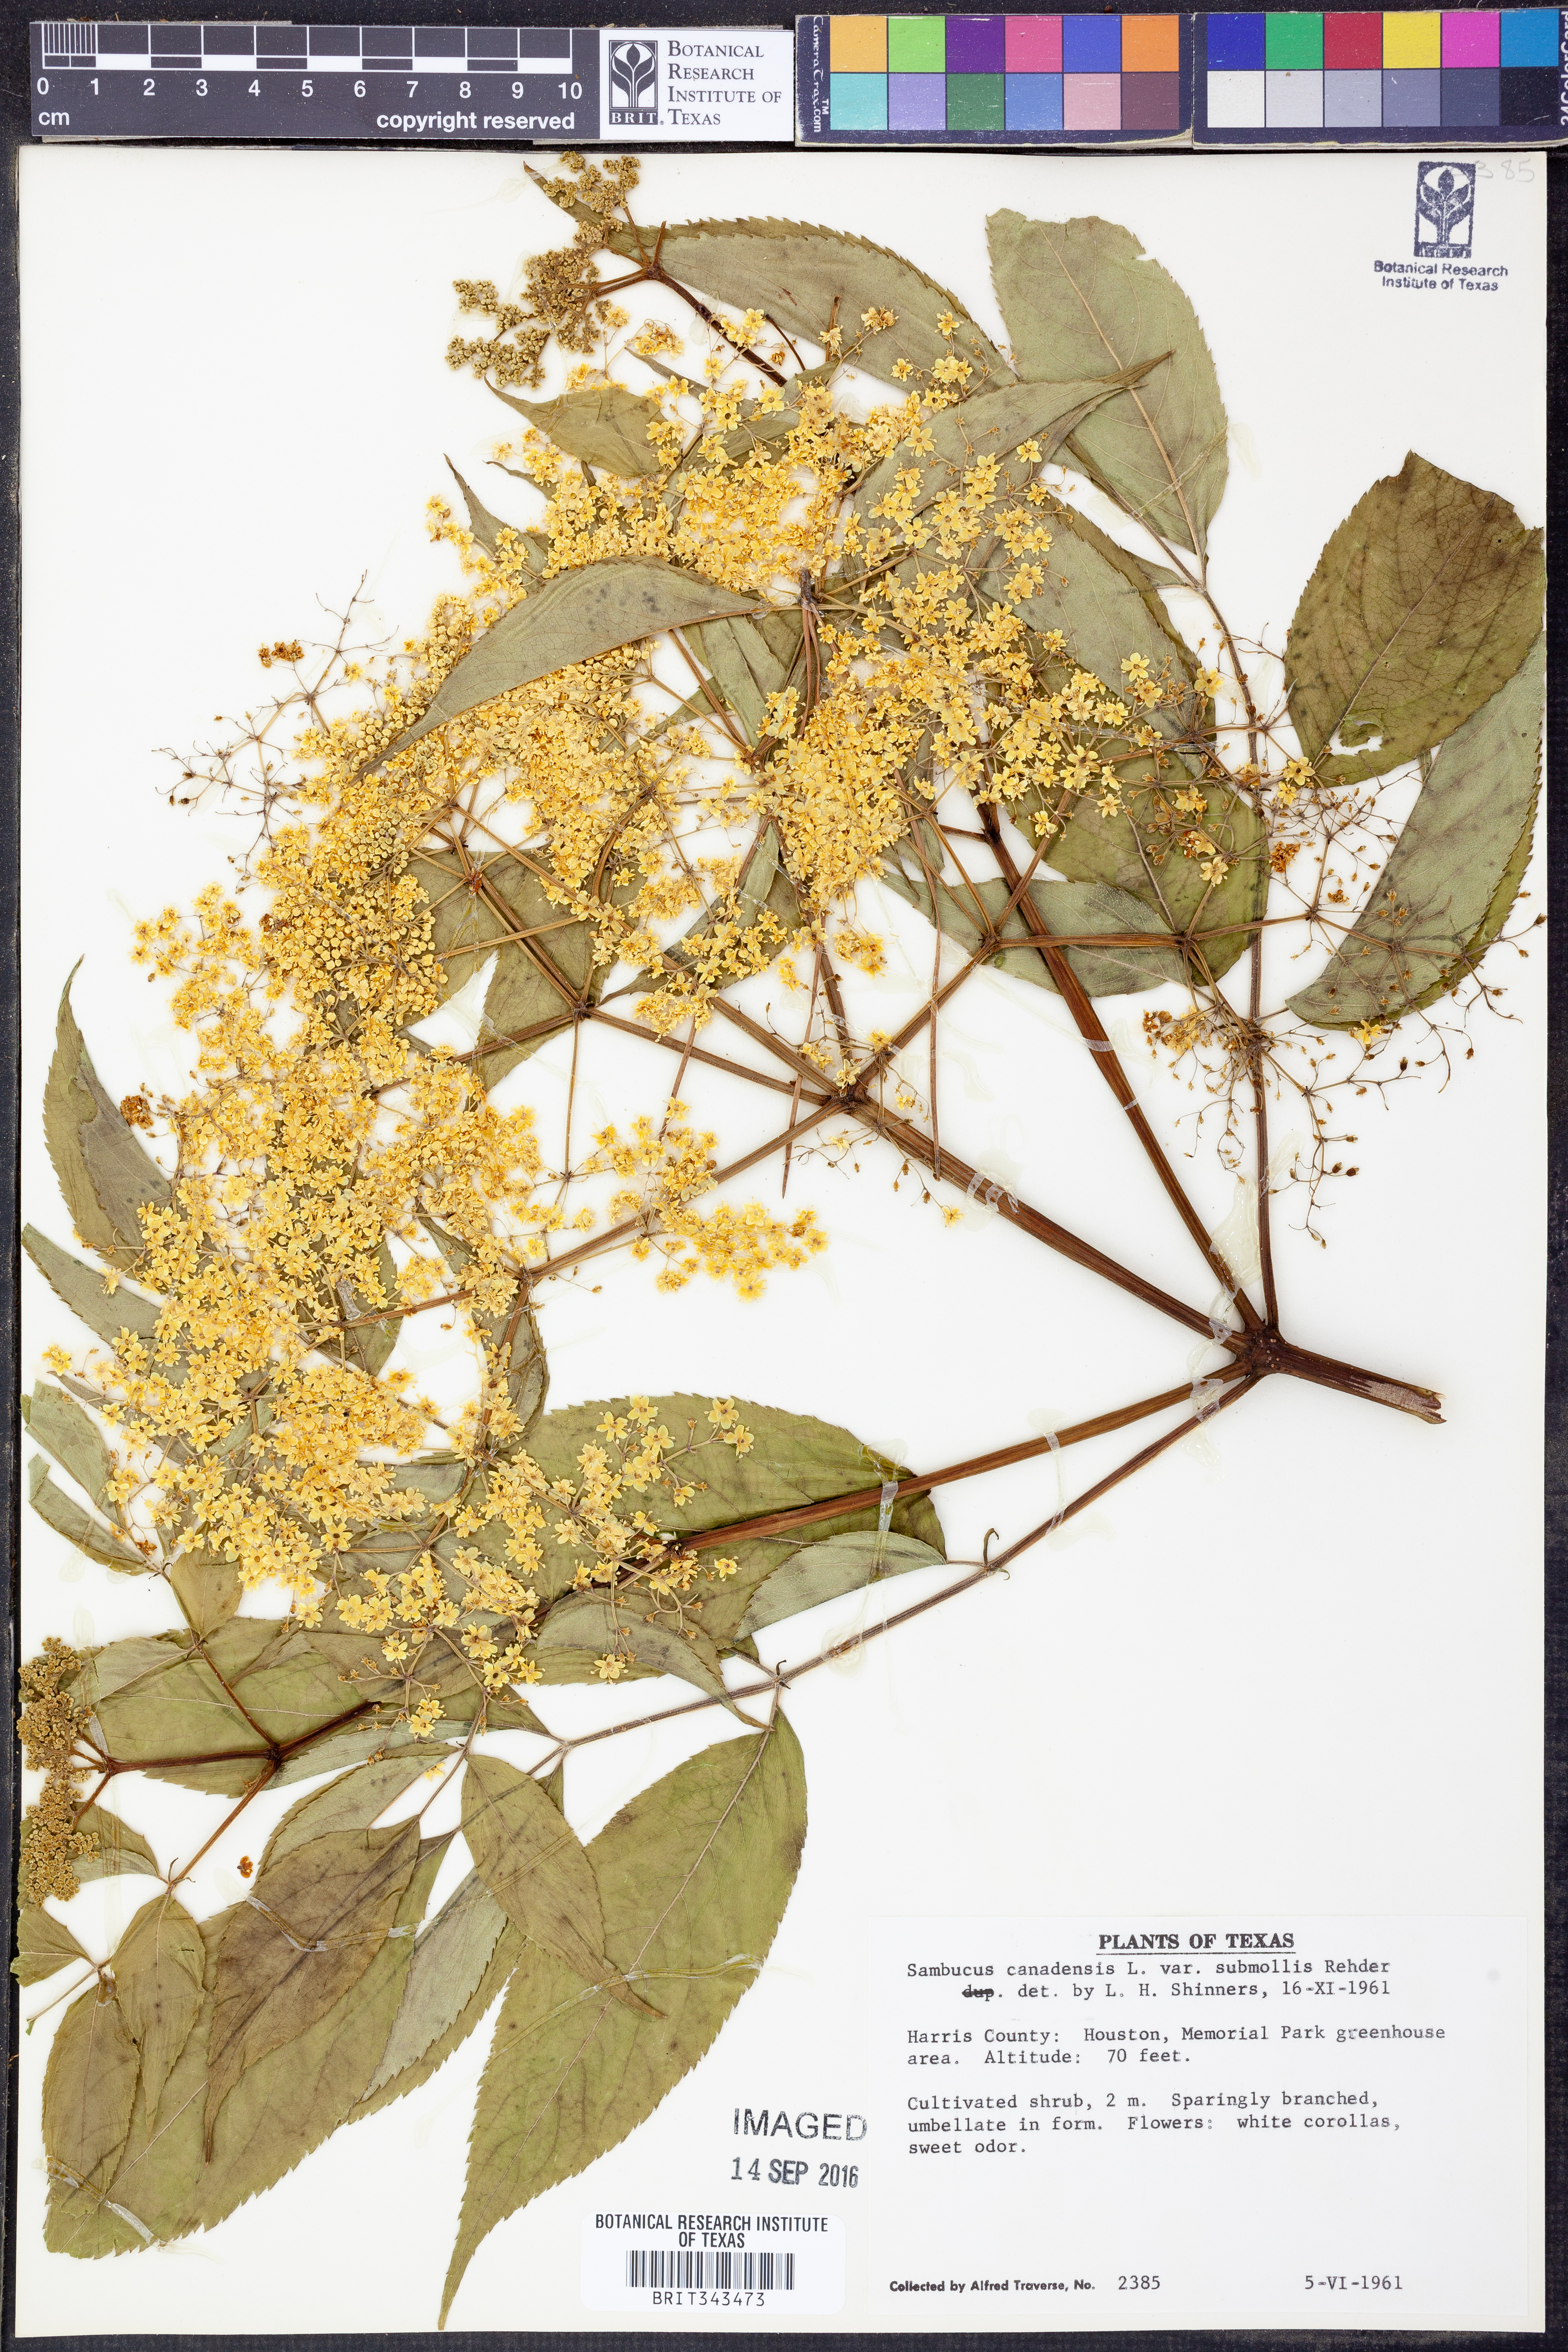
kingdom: Plantae
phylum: Tracheophyta
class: Magnoliopsida
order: Dipsacales
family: Viburnaceae
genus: Sambucus
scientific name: Sambucus canadensis
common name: American elder
